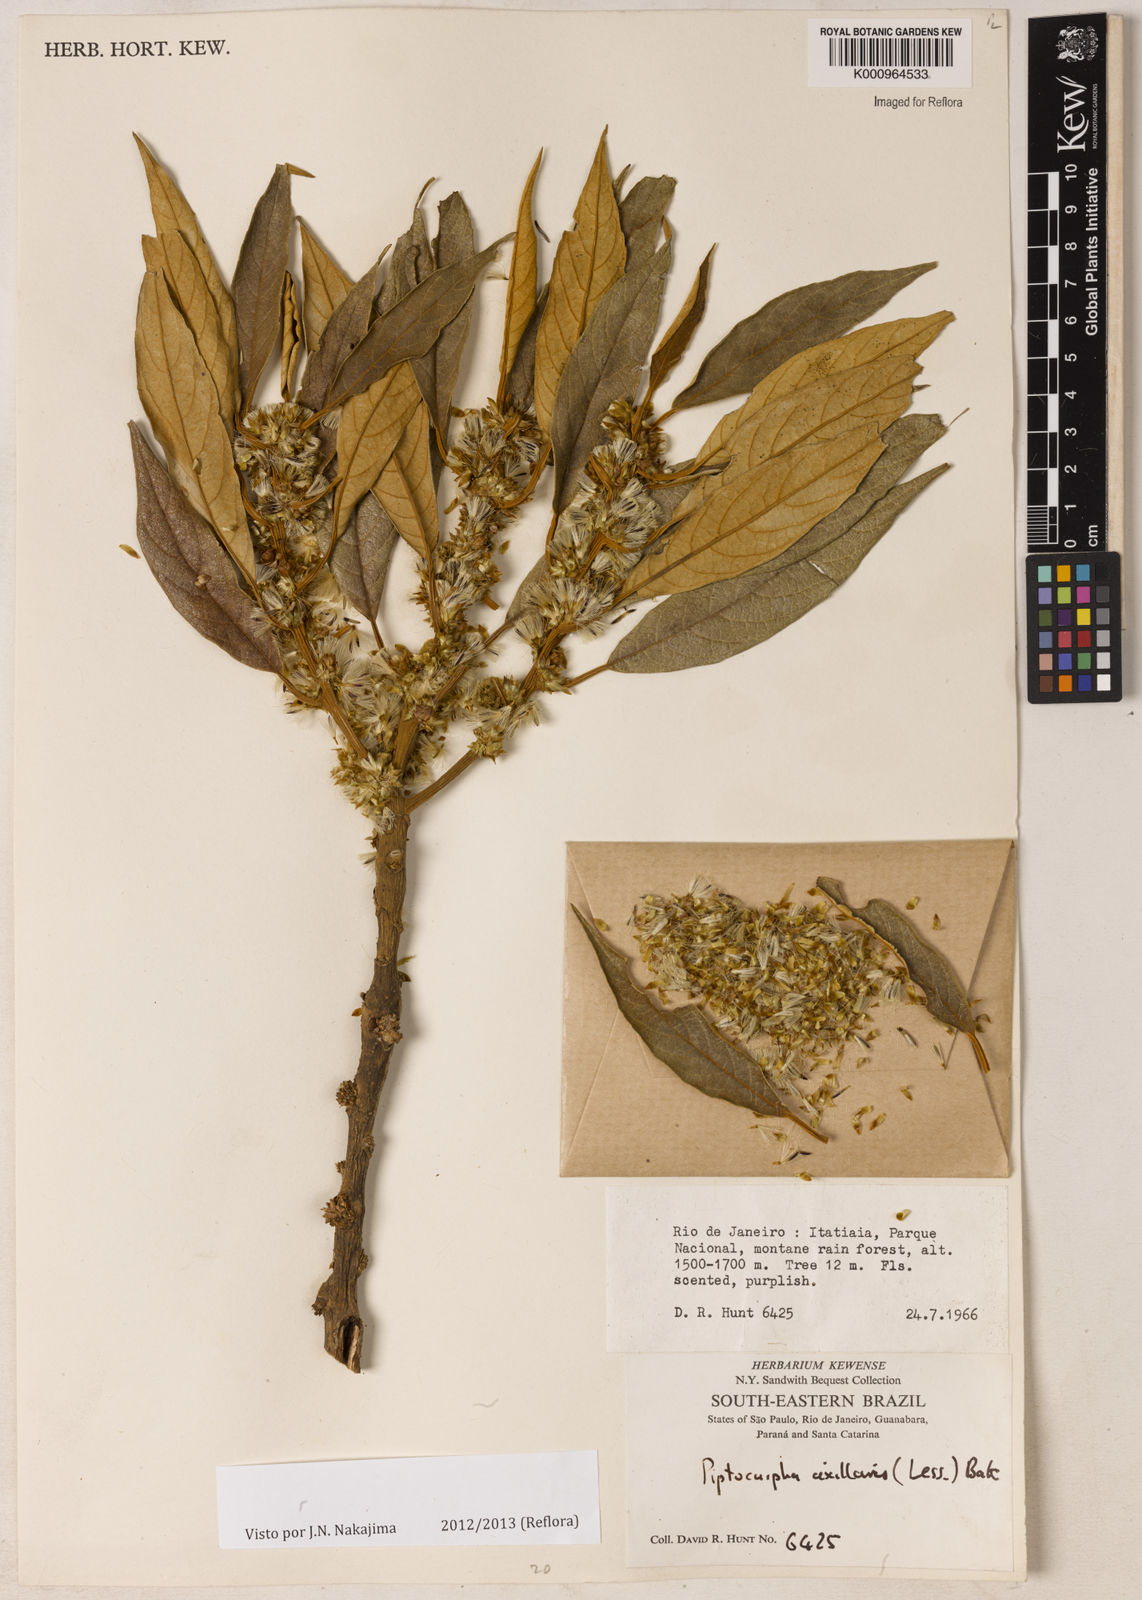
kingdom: Plantae
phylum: Tracheophyta
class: Magnoliopsida
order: Asterales
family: Asteraceae
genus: Piptocarpha
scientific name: Piptocarpha axillaris
